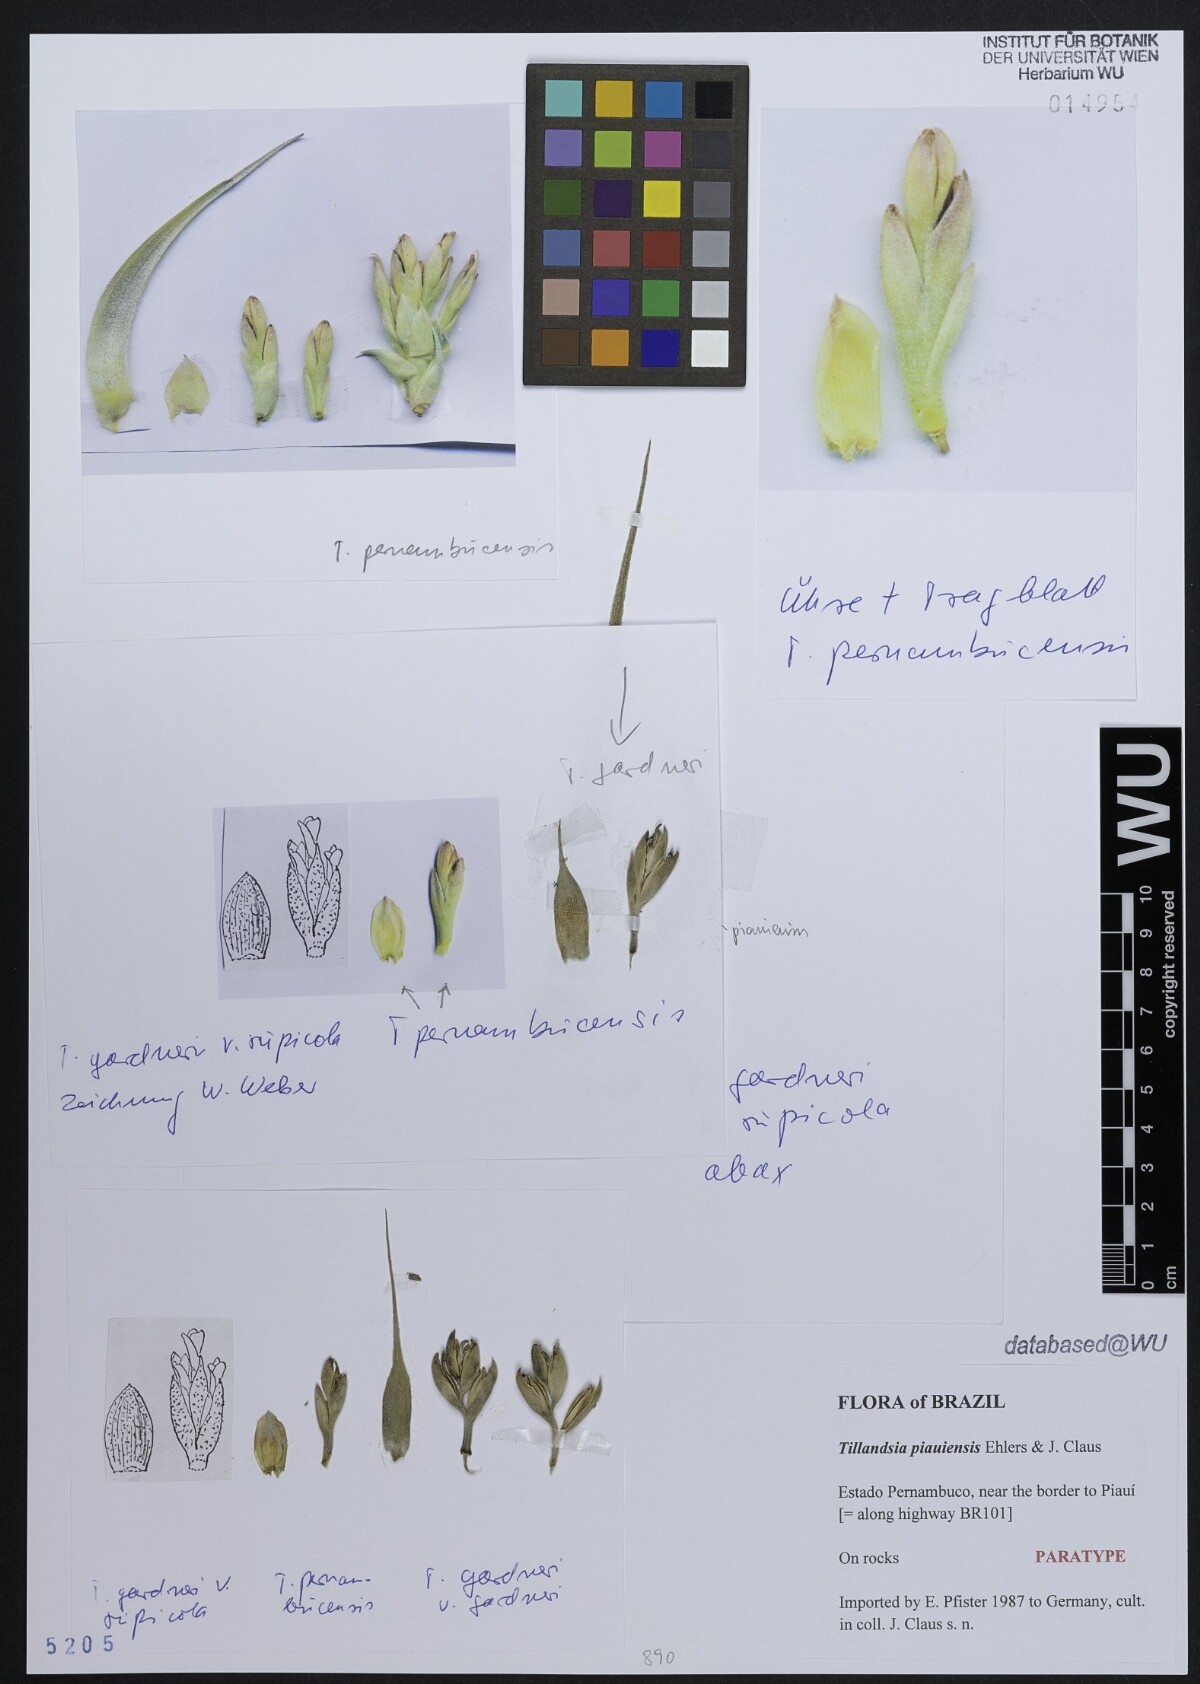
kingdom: Plantae
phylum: Tracheophyta
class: Liliopsida
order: Poales
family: Bromeliaceae
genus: Tillandsia
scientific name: Tillandsia piauiensis
